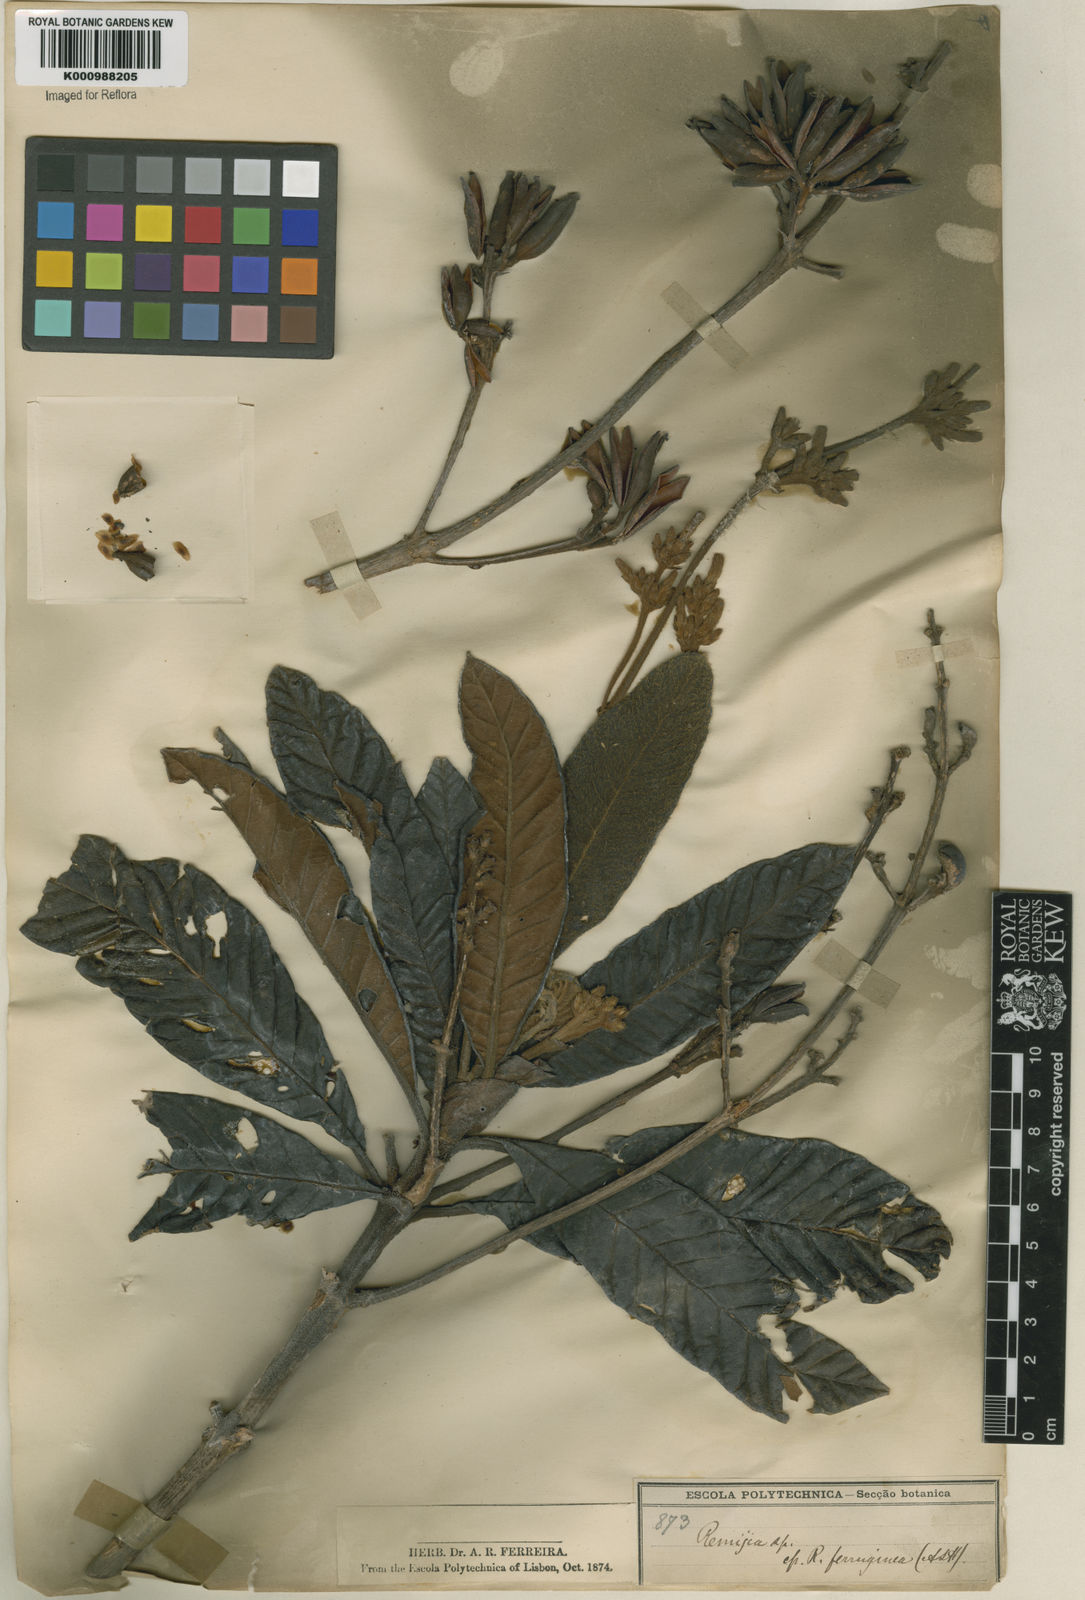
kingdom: Plantae
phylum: Tracheophyta
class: Magnoliopsida
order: Gentianales
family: Rubiaceae
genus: Remijia
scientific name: Remijia ferruginea
